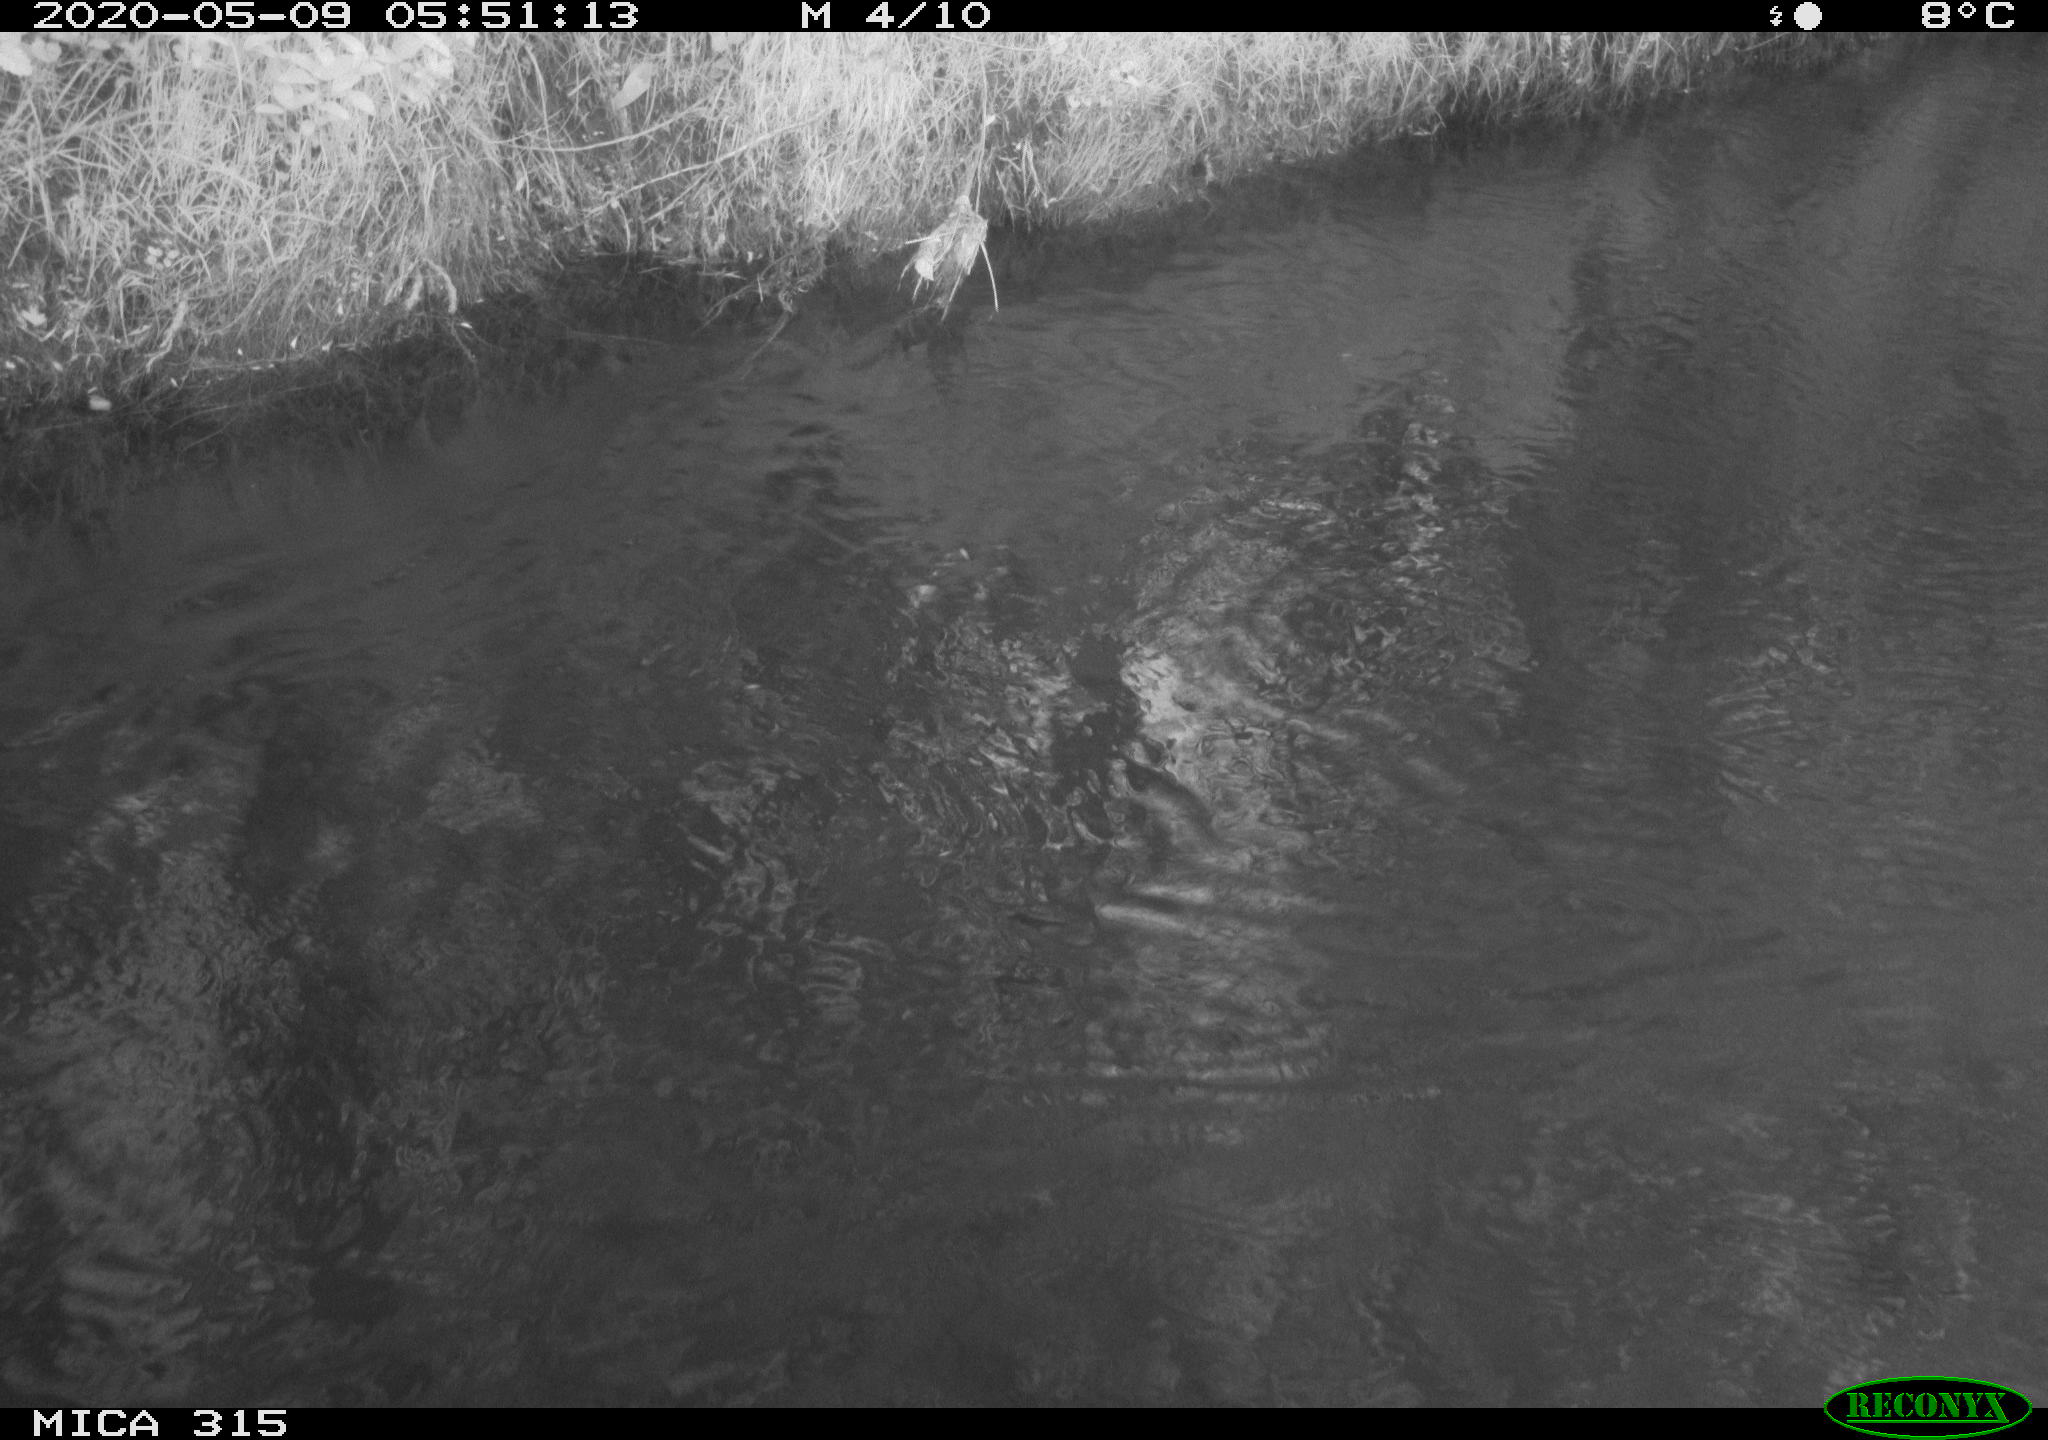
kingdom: Animalia
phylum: Chordata
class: Aves
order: Anseriformes
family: Anatidae
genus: Anas
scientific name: Anas platyrhynchos
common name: Mallard
